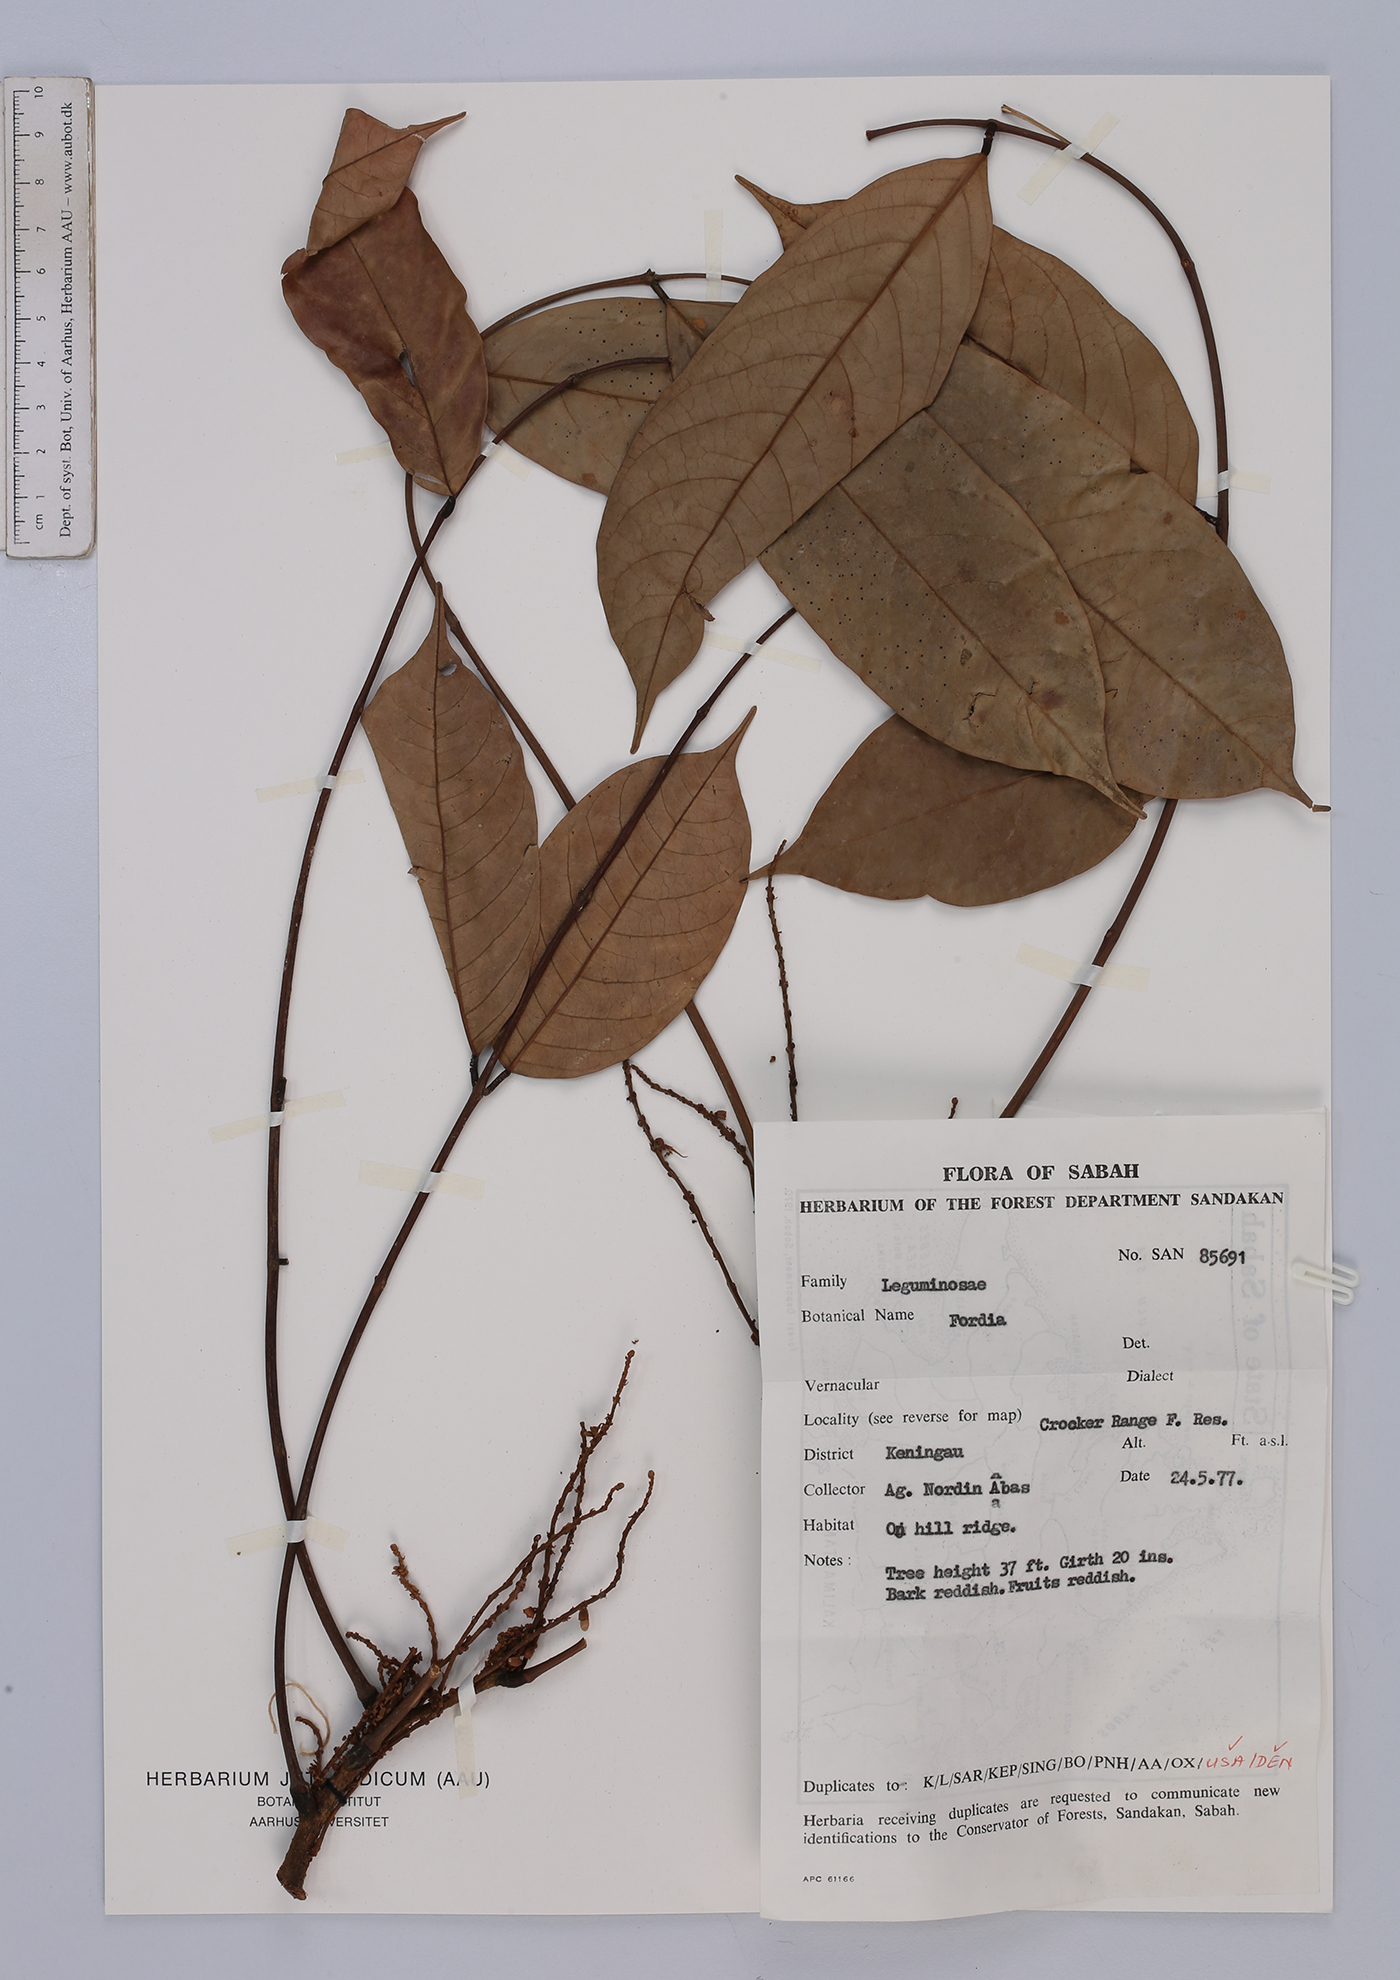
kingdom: Plantae
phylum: Tracheophyta
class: Magnoliopsida
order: Fabales
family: Fabaceae
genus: Fordia
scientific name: Fordia
